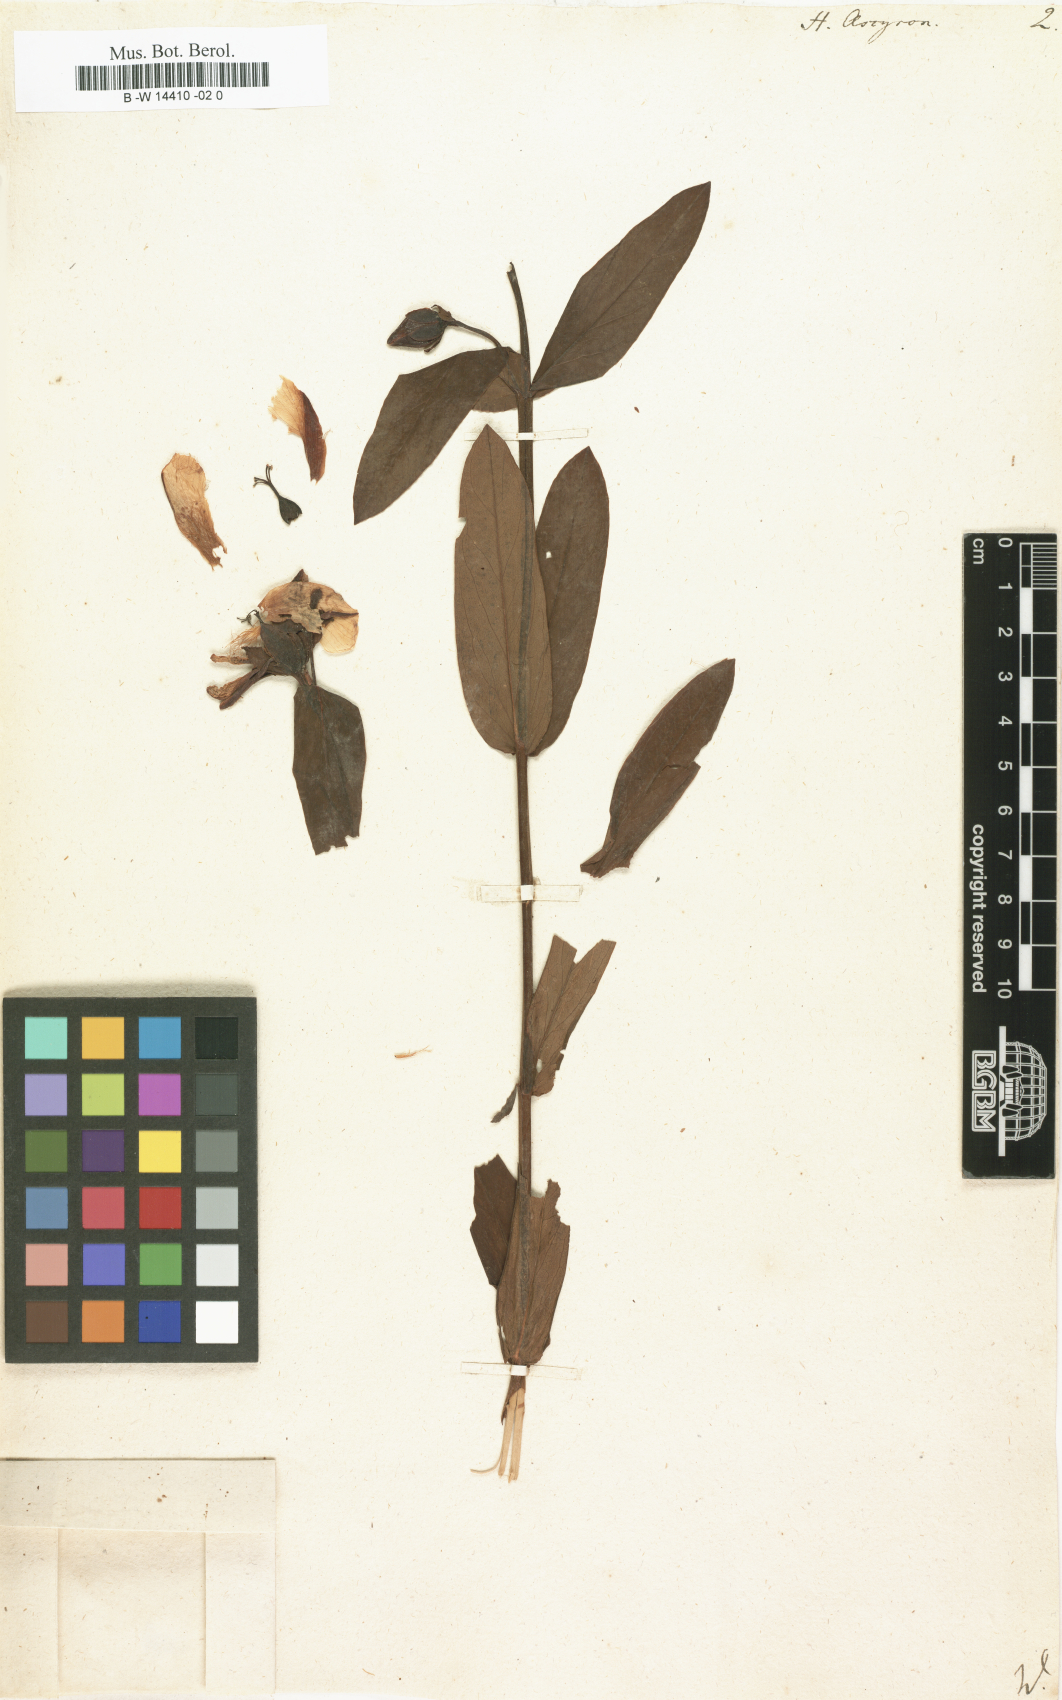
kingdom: Plantae
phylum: Tracheophyta
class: Magnoliopsida
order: Malpighiales
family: Hypericaceae
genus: Hypericum
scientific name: Hypericum ascyron
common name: Giant st. john's-wort
